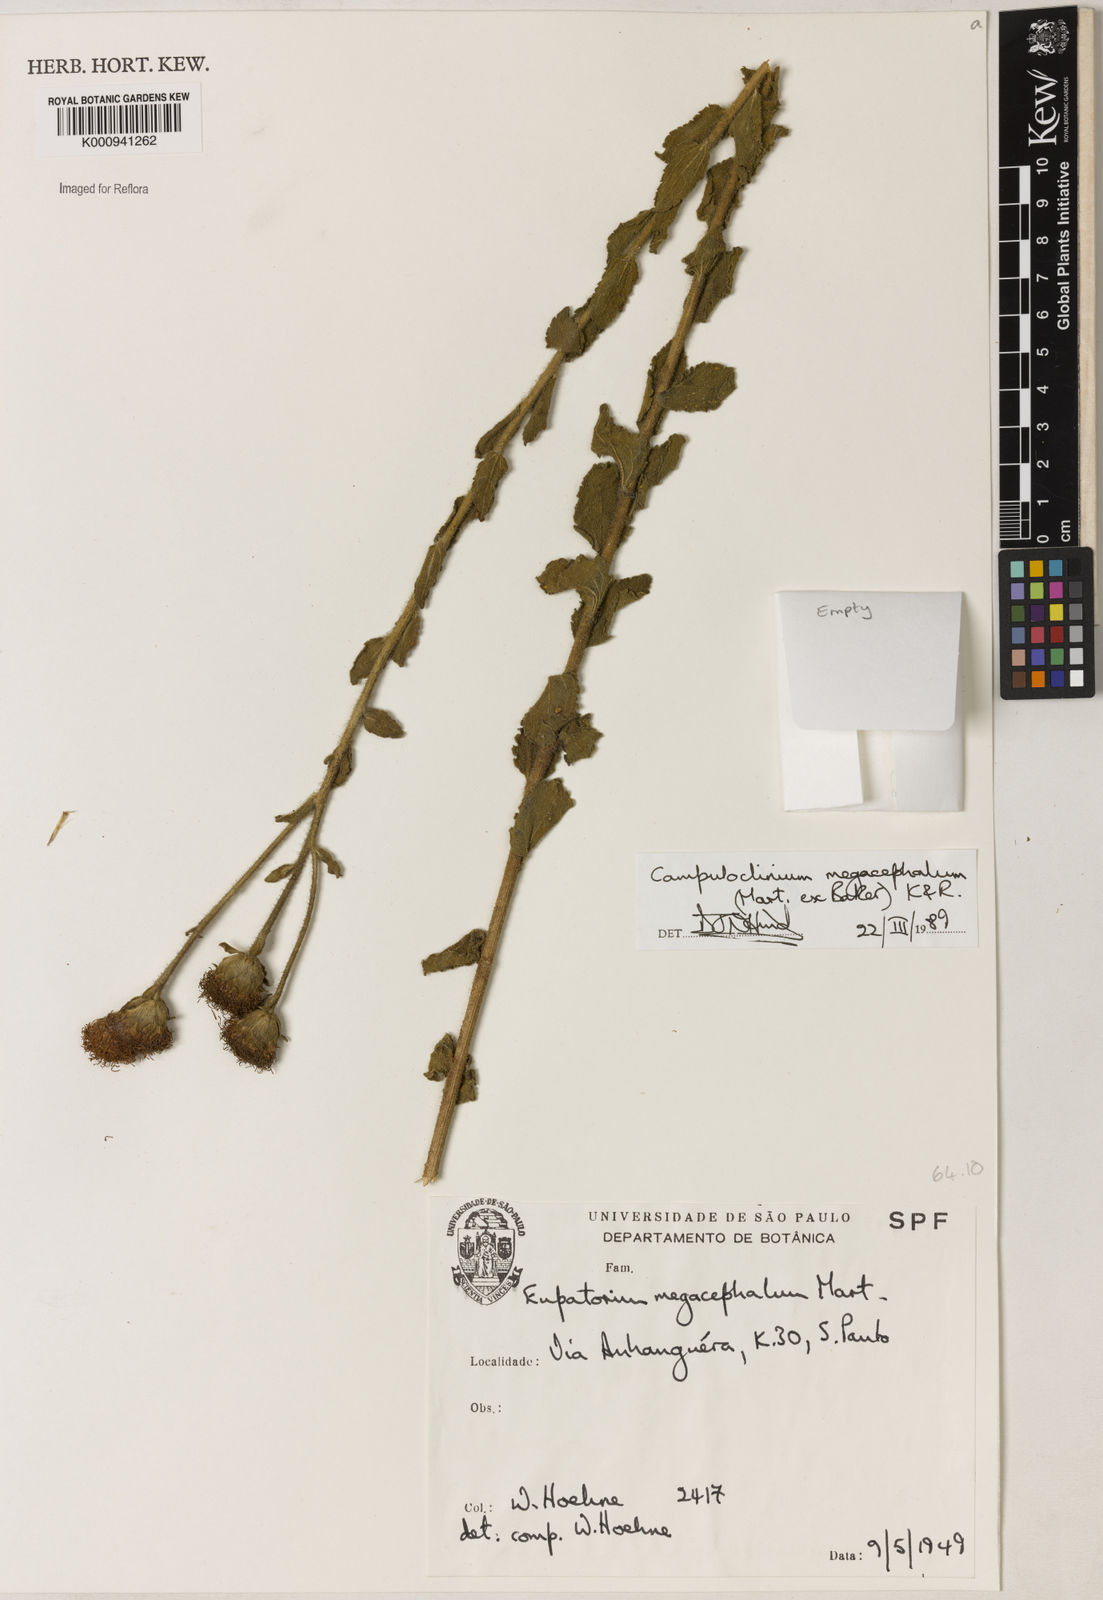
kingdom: Plantae
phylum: Tracheophyta
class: Magnoliopsida
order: Asterales
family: Asteraceae
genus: Campuloclinium
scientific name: Campuloclinium megacephalum
